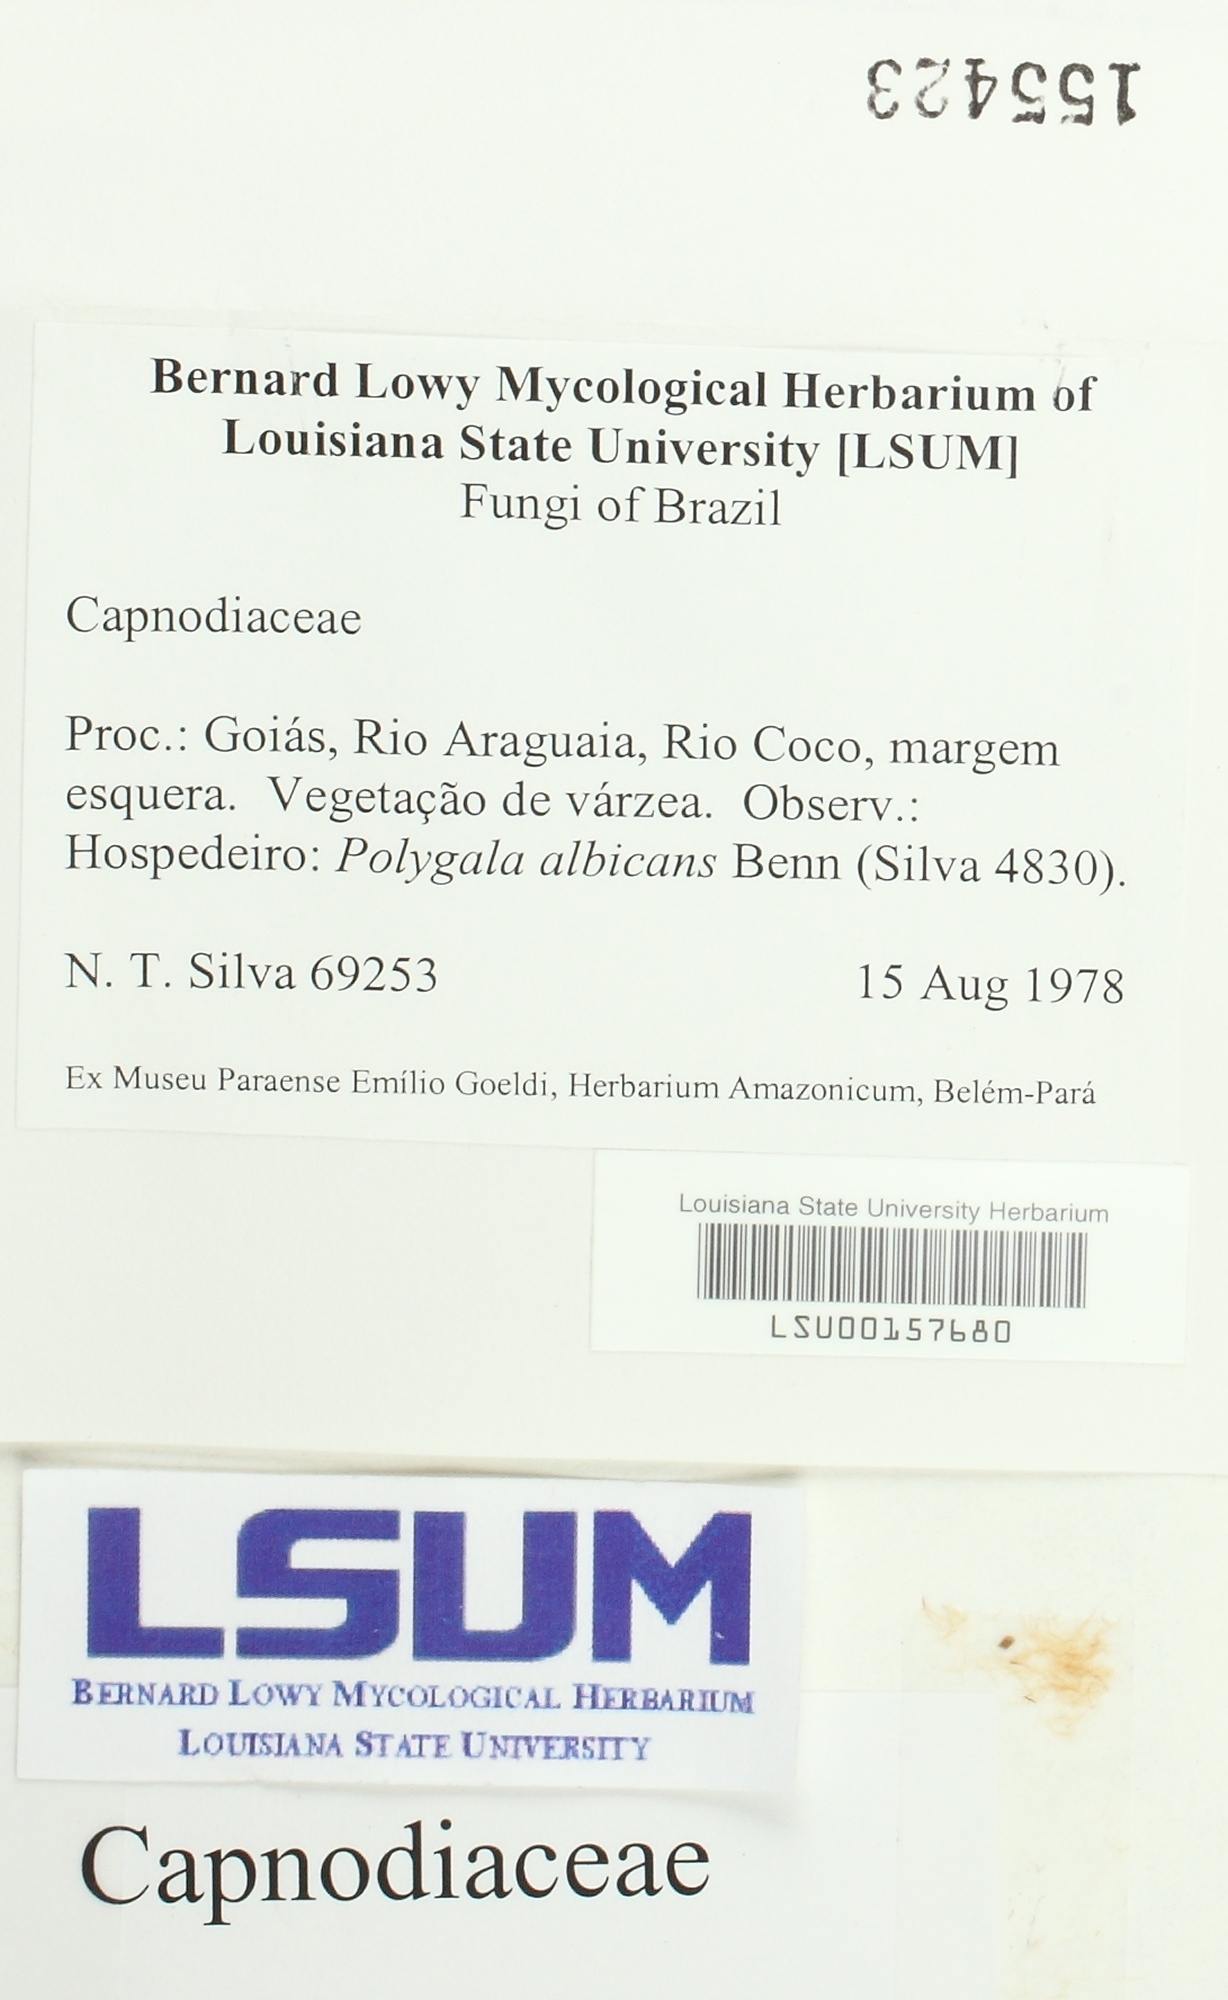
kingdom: Fungi
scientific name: Fungi
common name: Fungi
